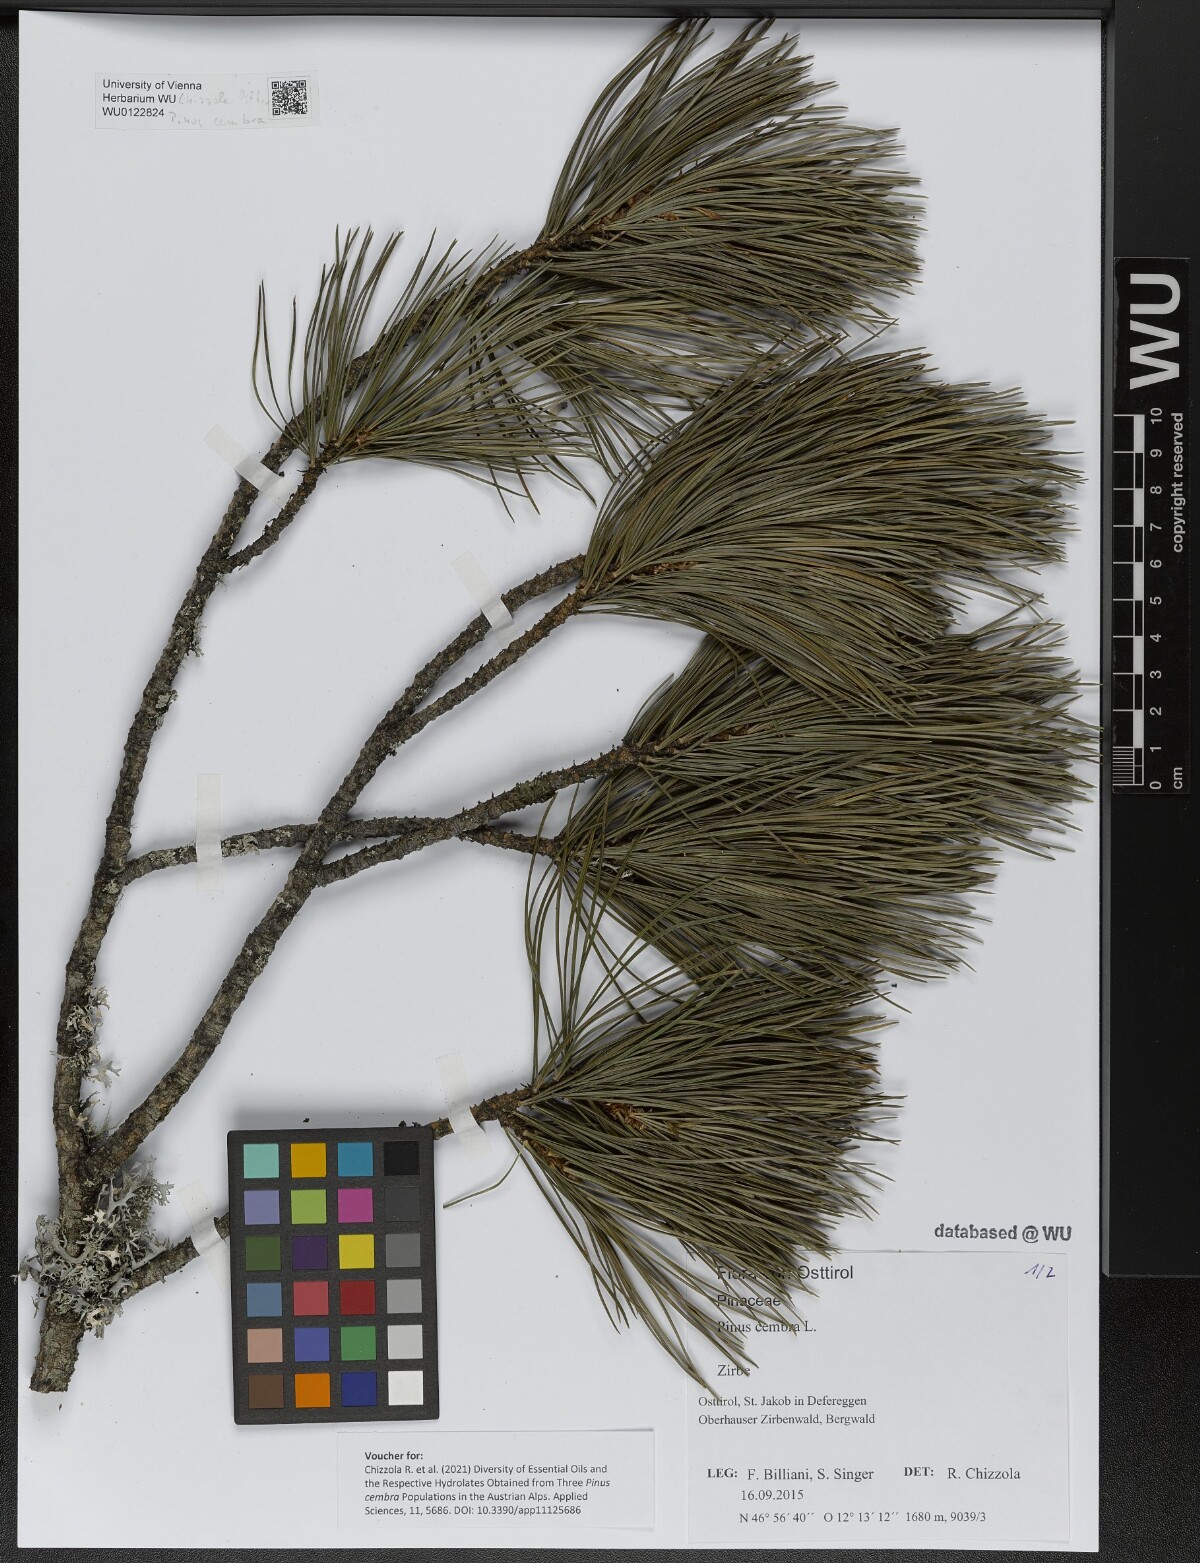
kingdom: Plantae
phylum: Tracheophyta
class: Pinopsida
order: Pinales
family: Pinaceae
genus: Pinus
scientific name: Pinus cembra
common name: Arolla pine
